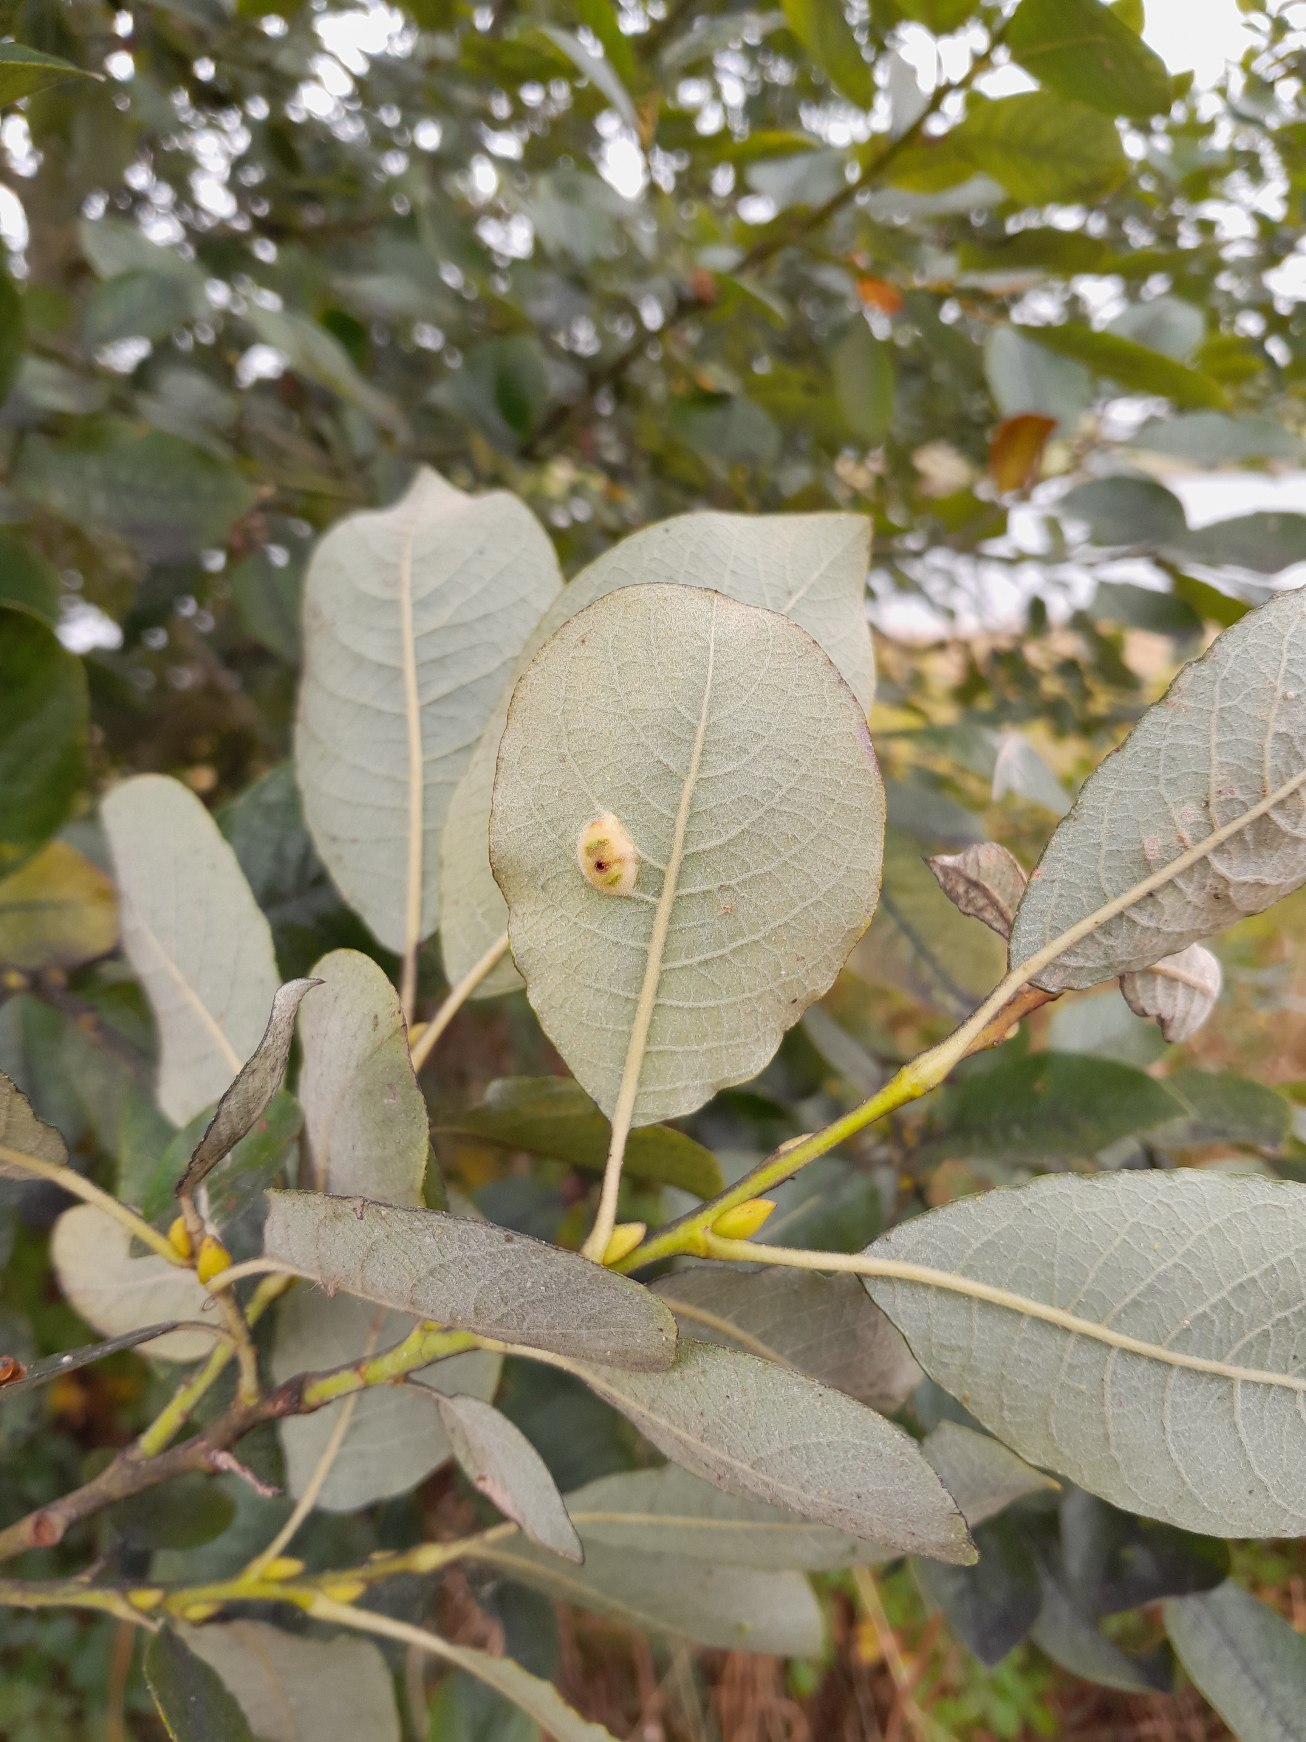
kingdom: Plantae
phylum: Tracheophyta
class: Magnoliopsida
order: Malpighiales
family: Salicaceae
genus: Salix
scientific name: Salix caprea
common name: Selje-pil
